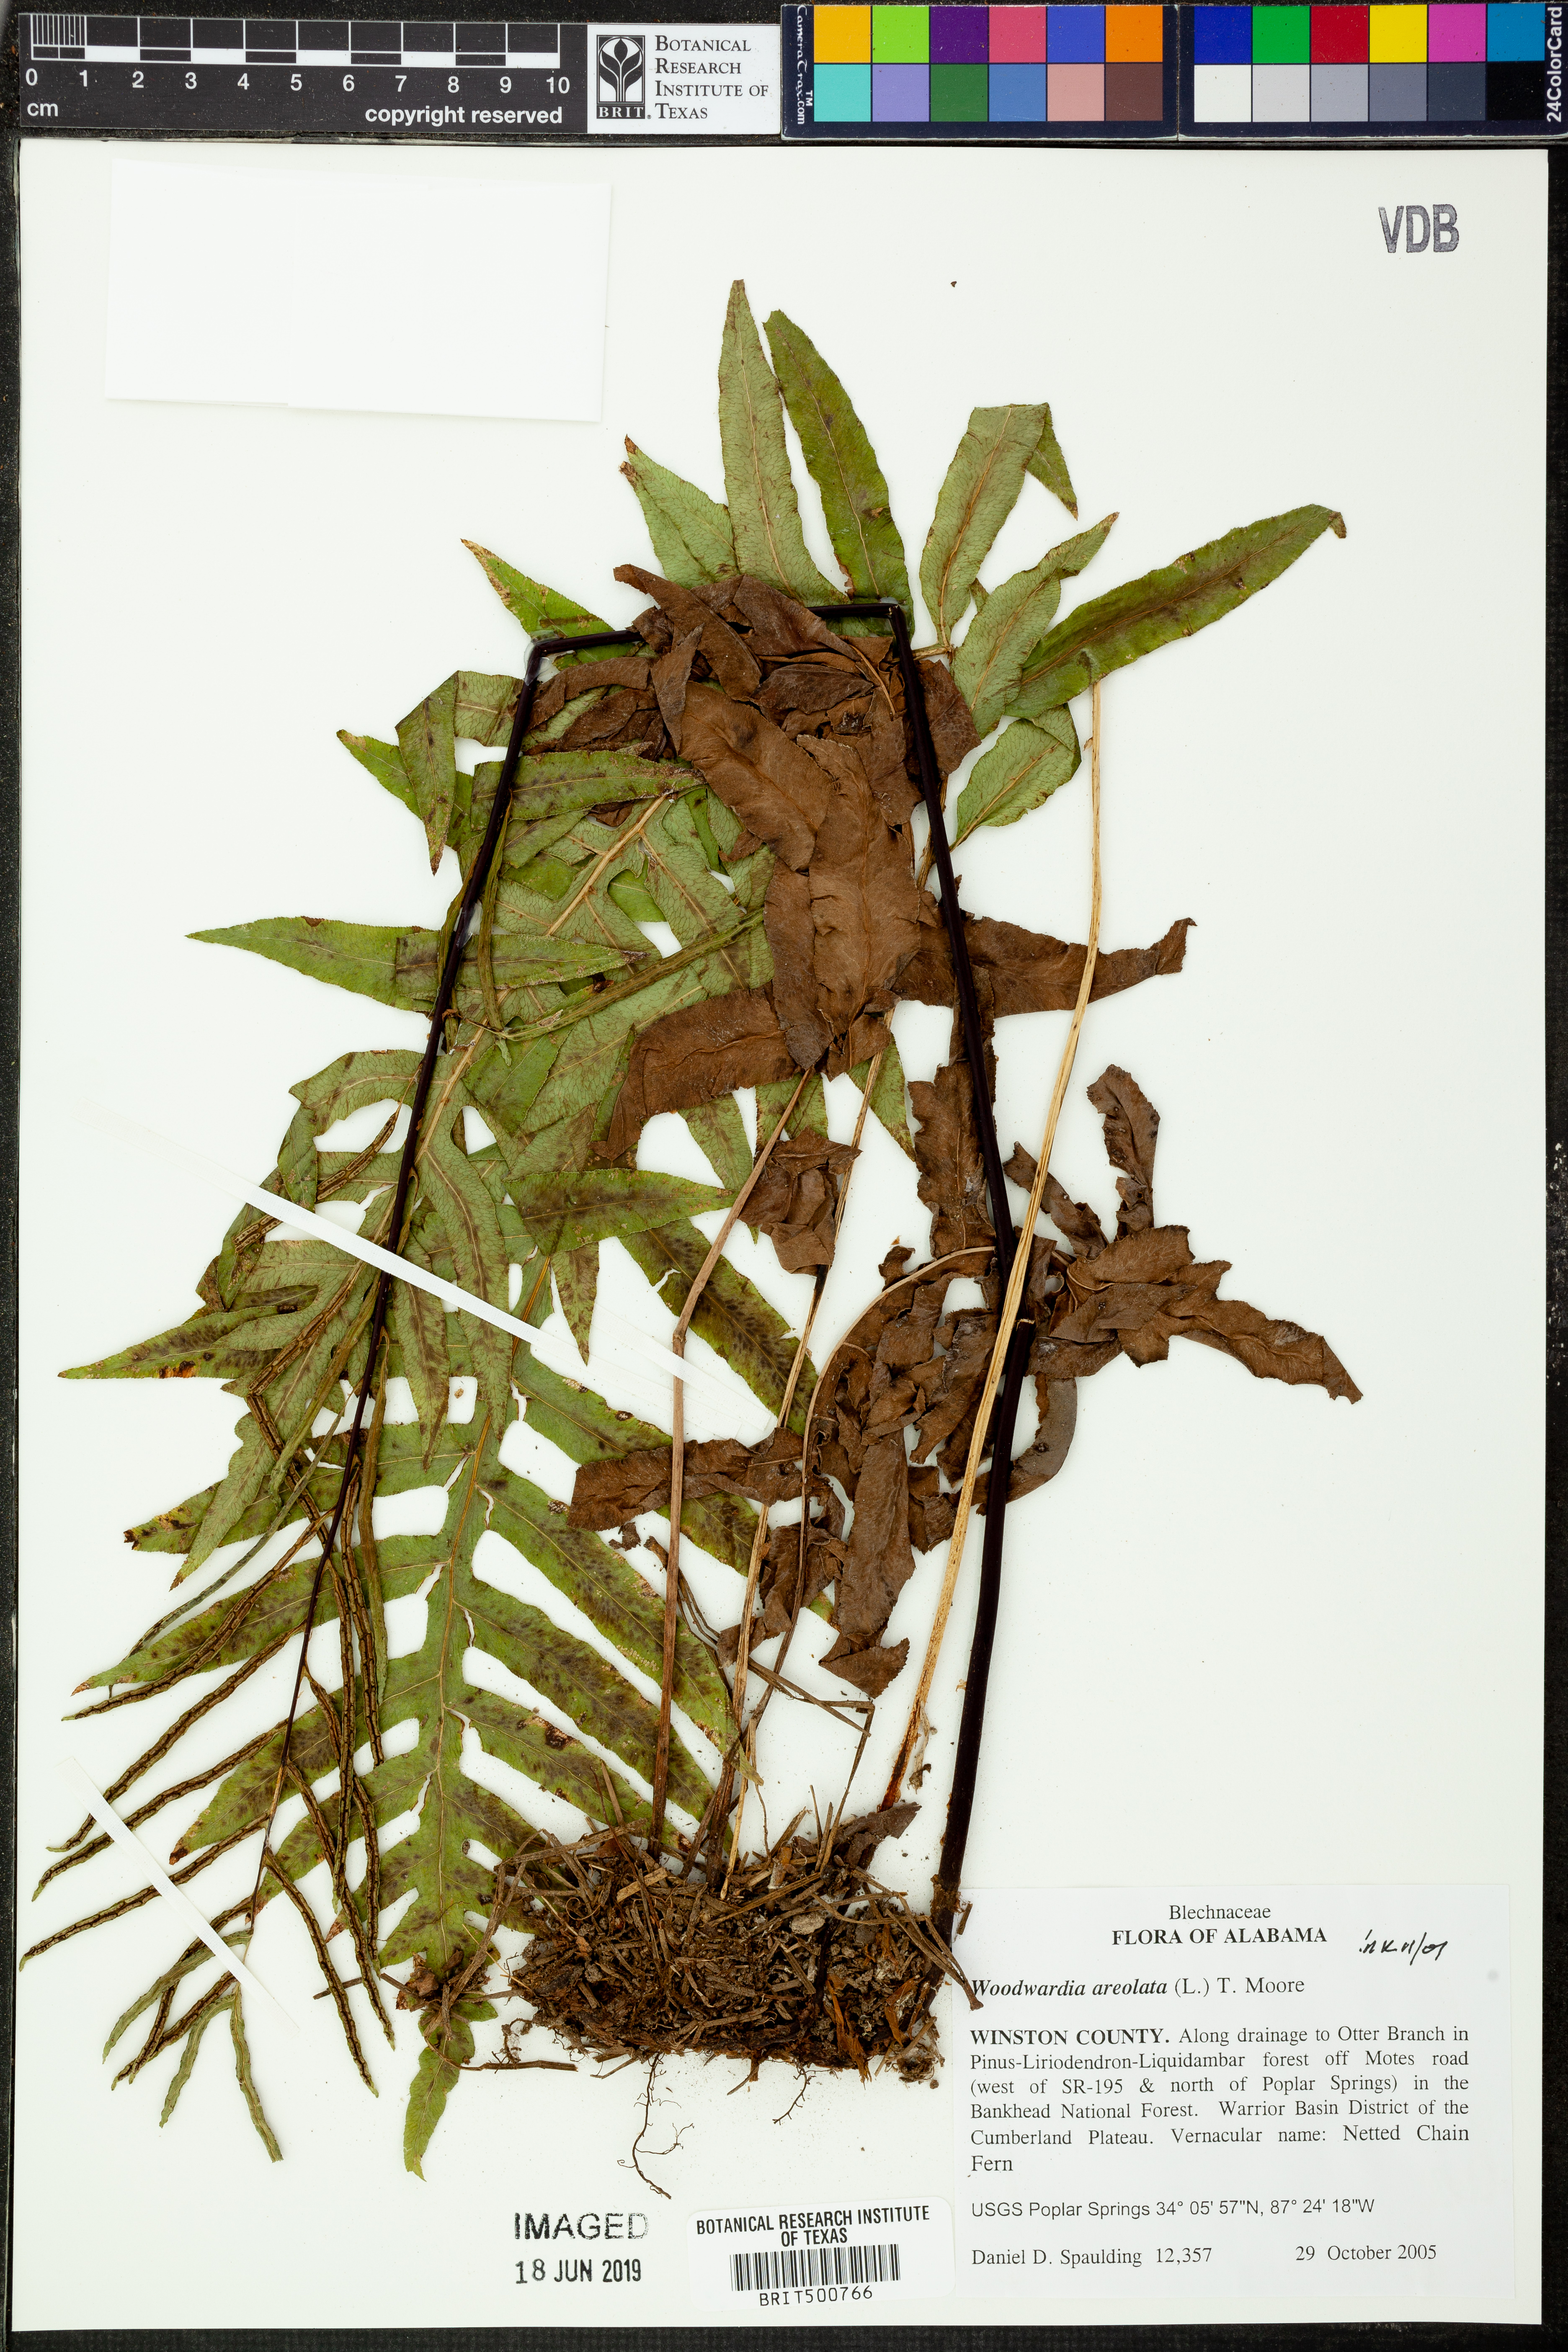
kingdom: Plantae
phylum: Tracheophyta
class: Polypodiopsida
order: Polypodiales
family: Blechnaceae
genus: Lorinseria
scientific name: Lorinseria areolata
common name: Dwarf chain fern
